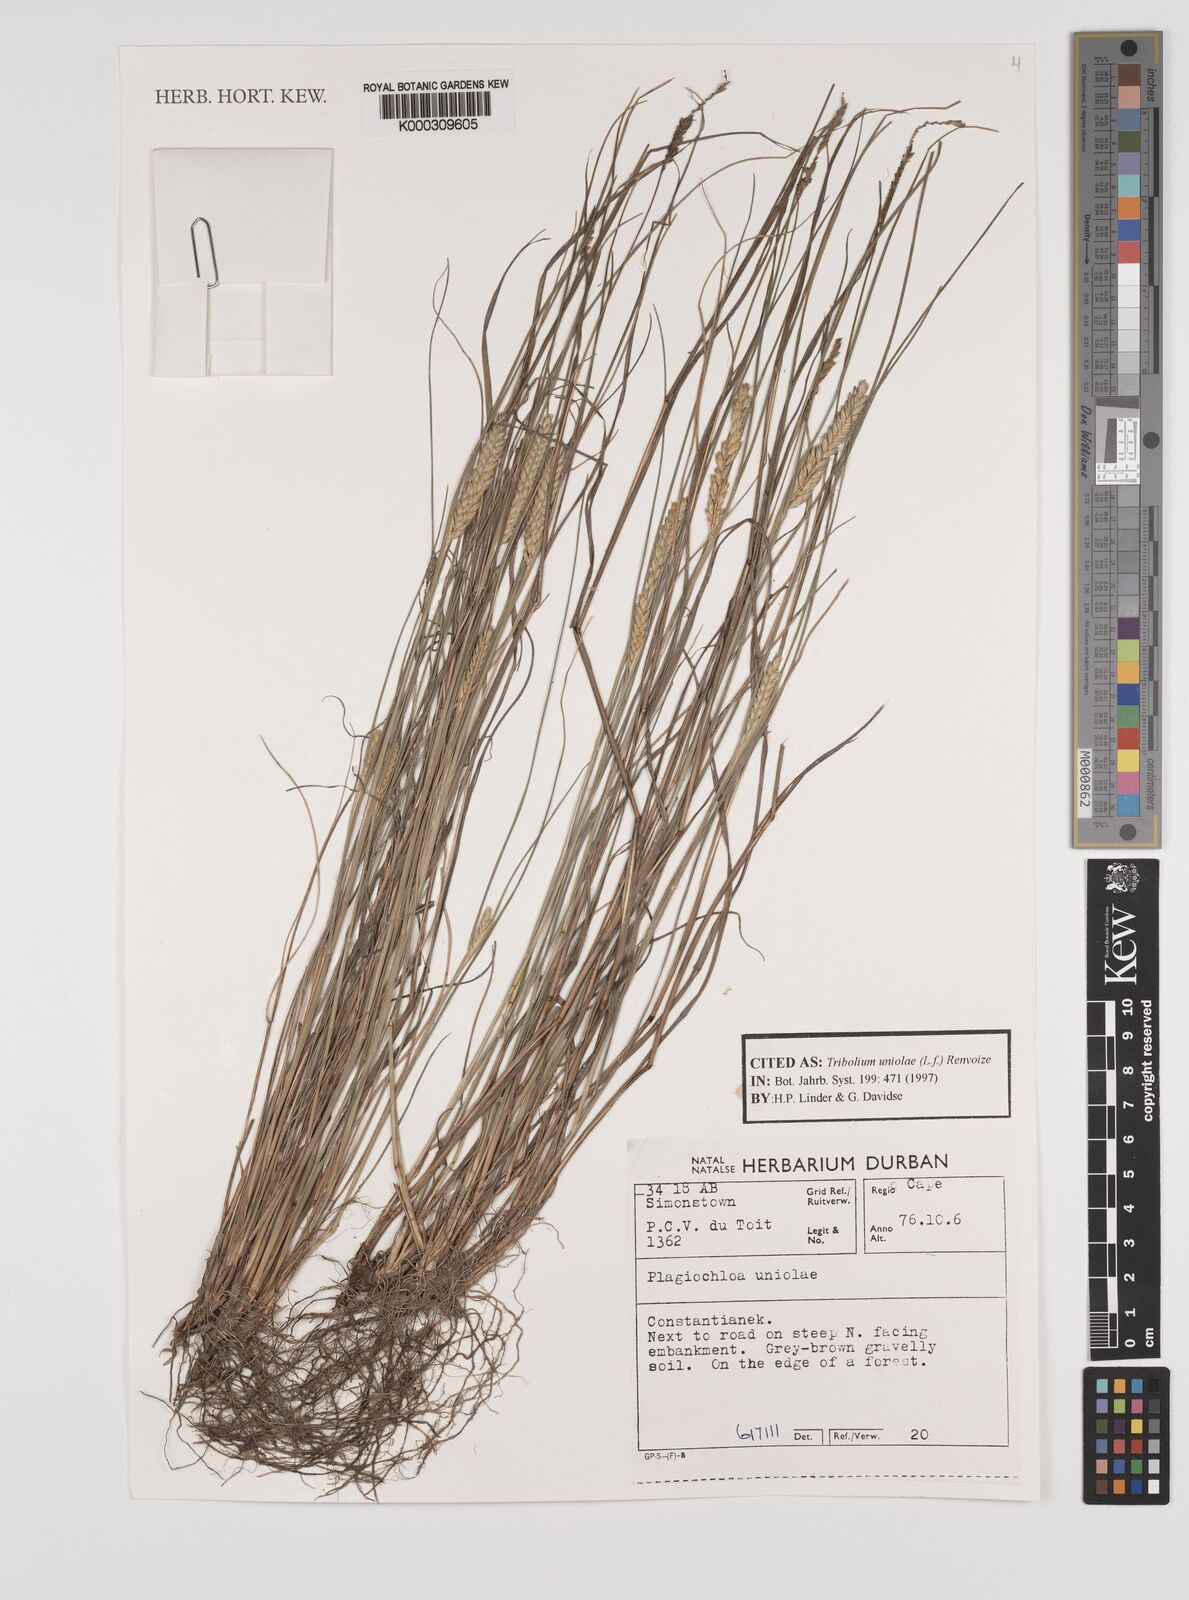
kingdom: Plantae
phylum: Tracheophyta
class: Liliopsida
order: Poales
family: Poaceae
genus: Tribolium
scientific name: Tribolium uniolae
